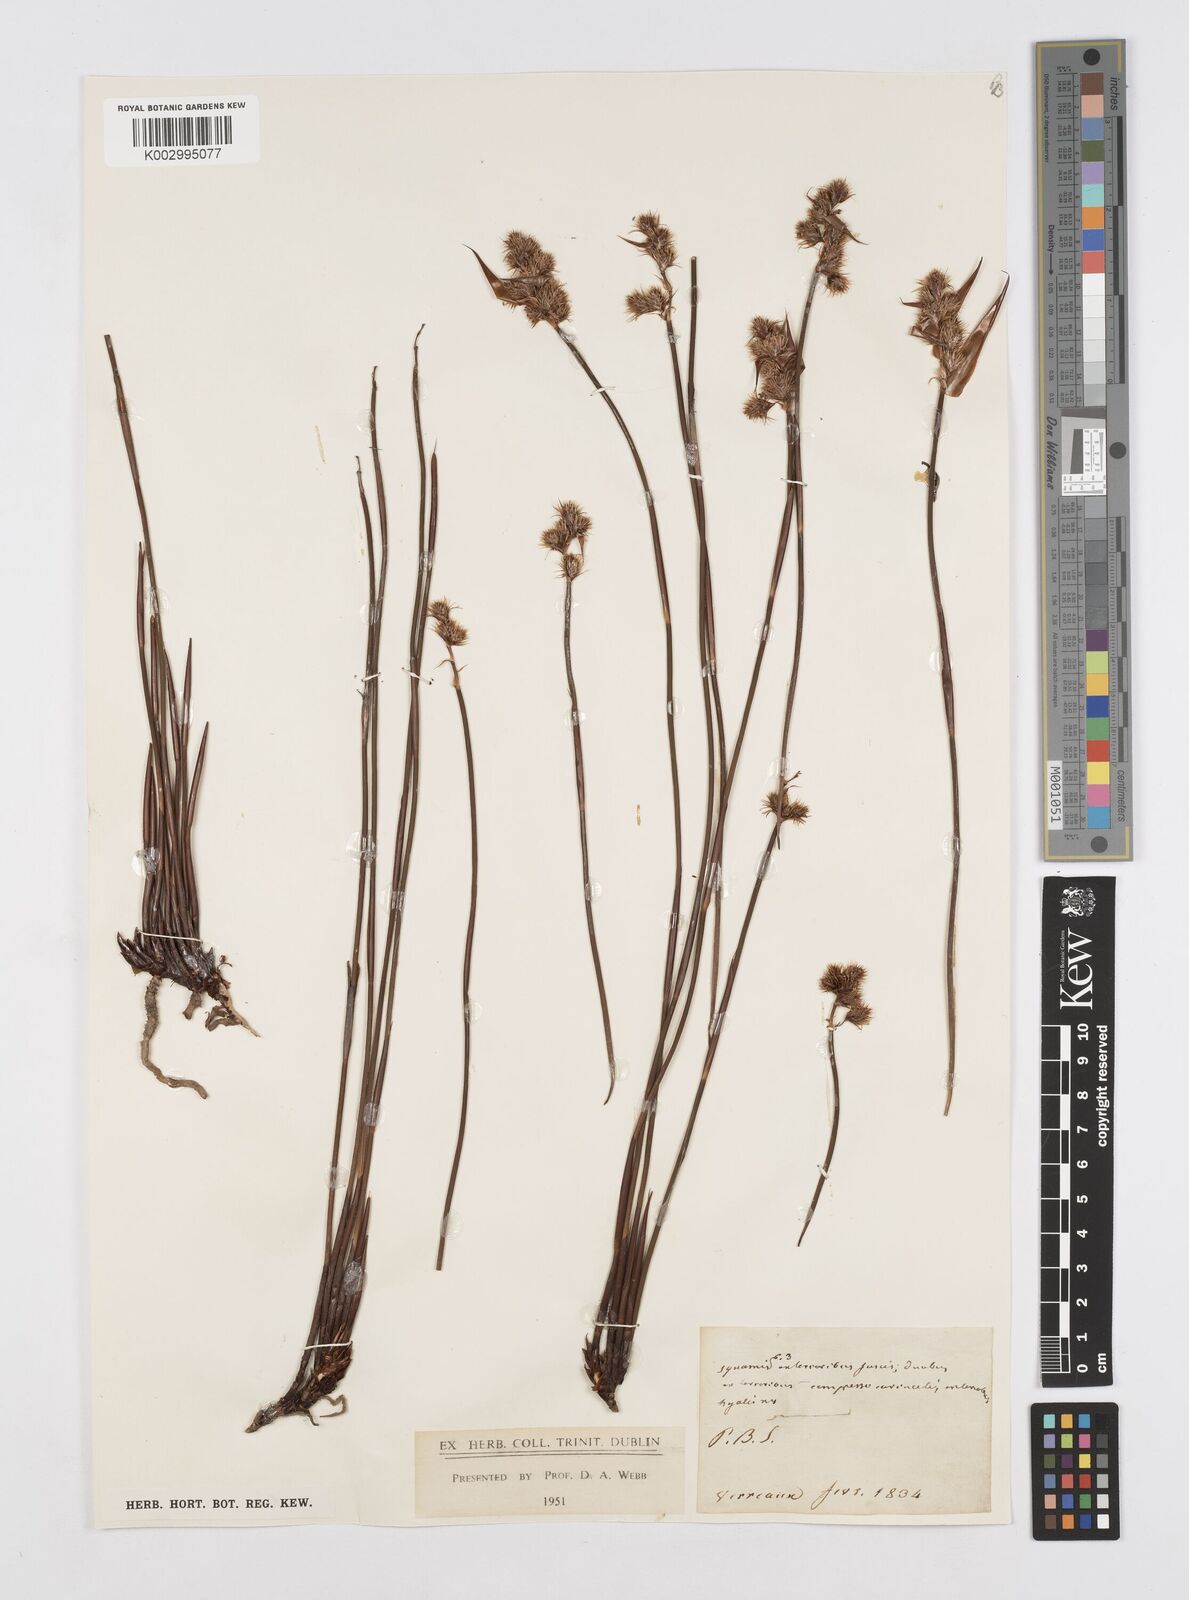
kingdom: Plantae
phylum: Tracheophyta
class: Liliopsida
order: Poales
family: Restionaceae
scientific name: Restionaceae
